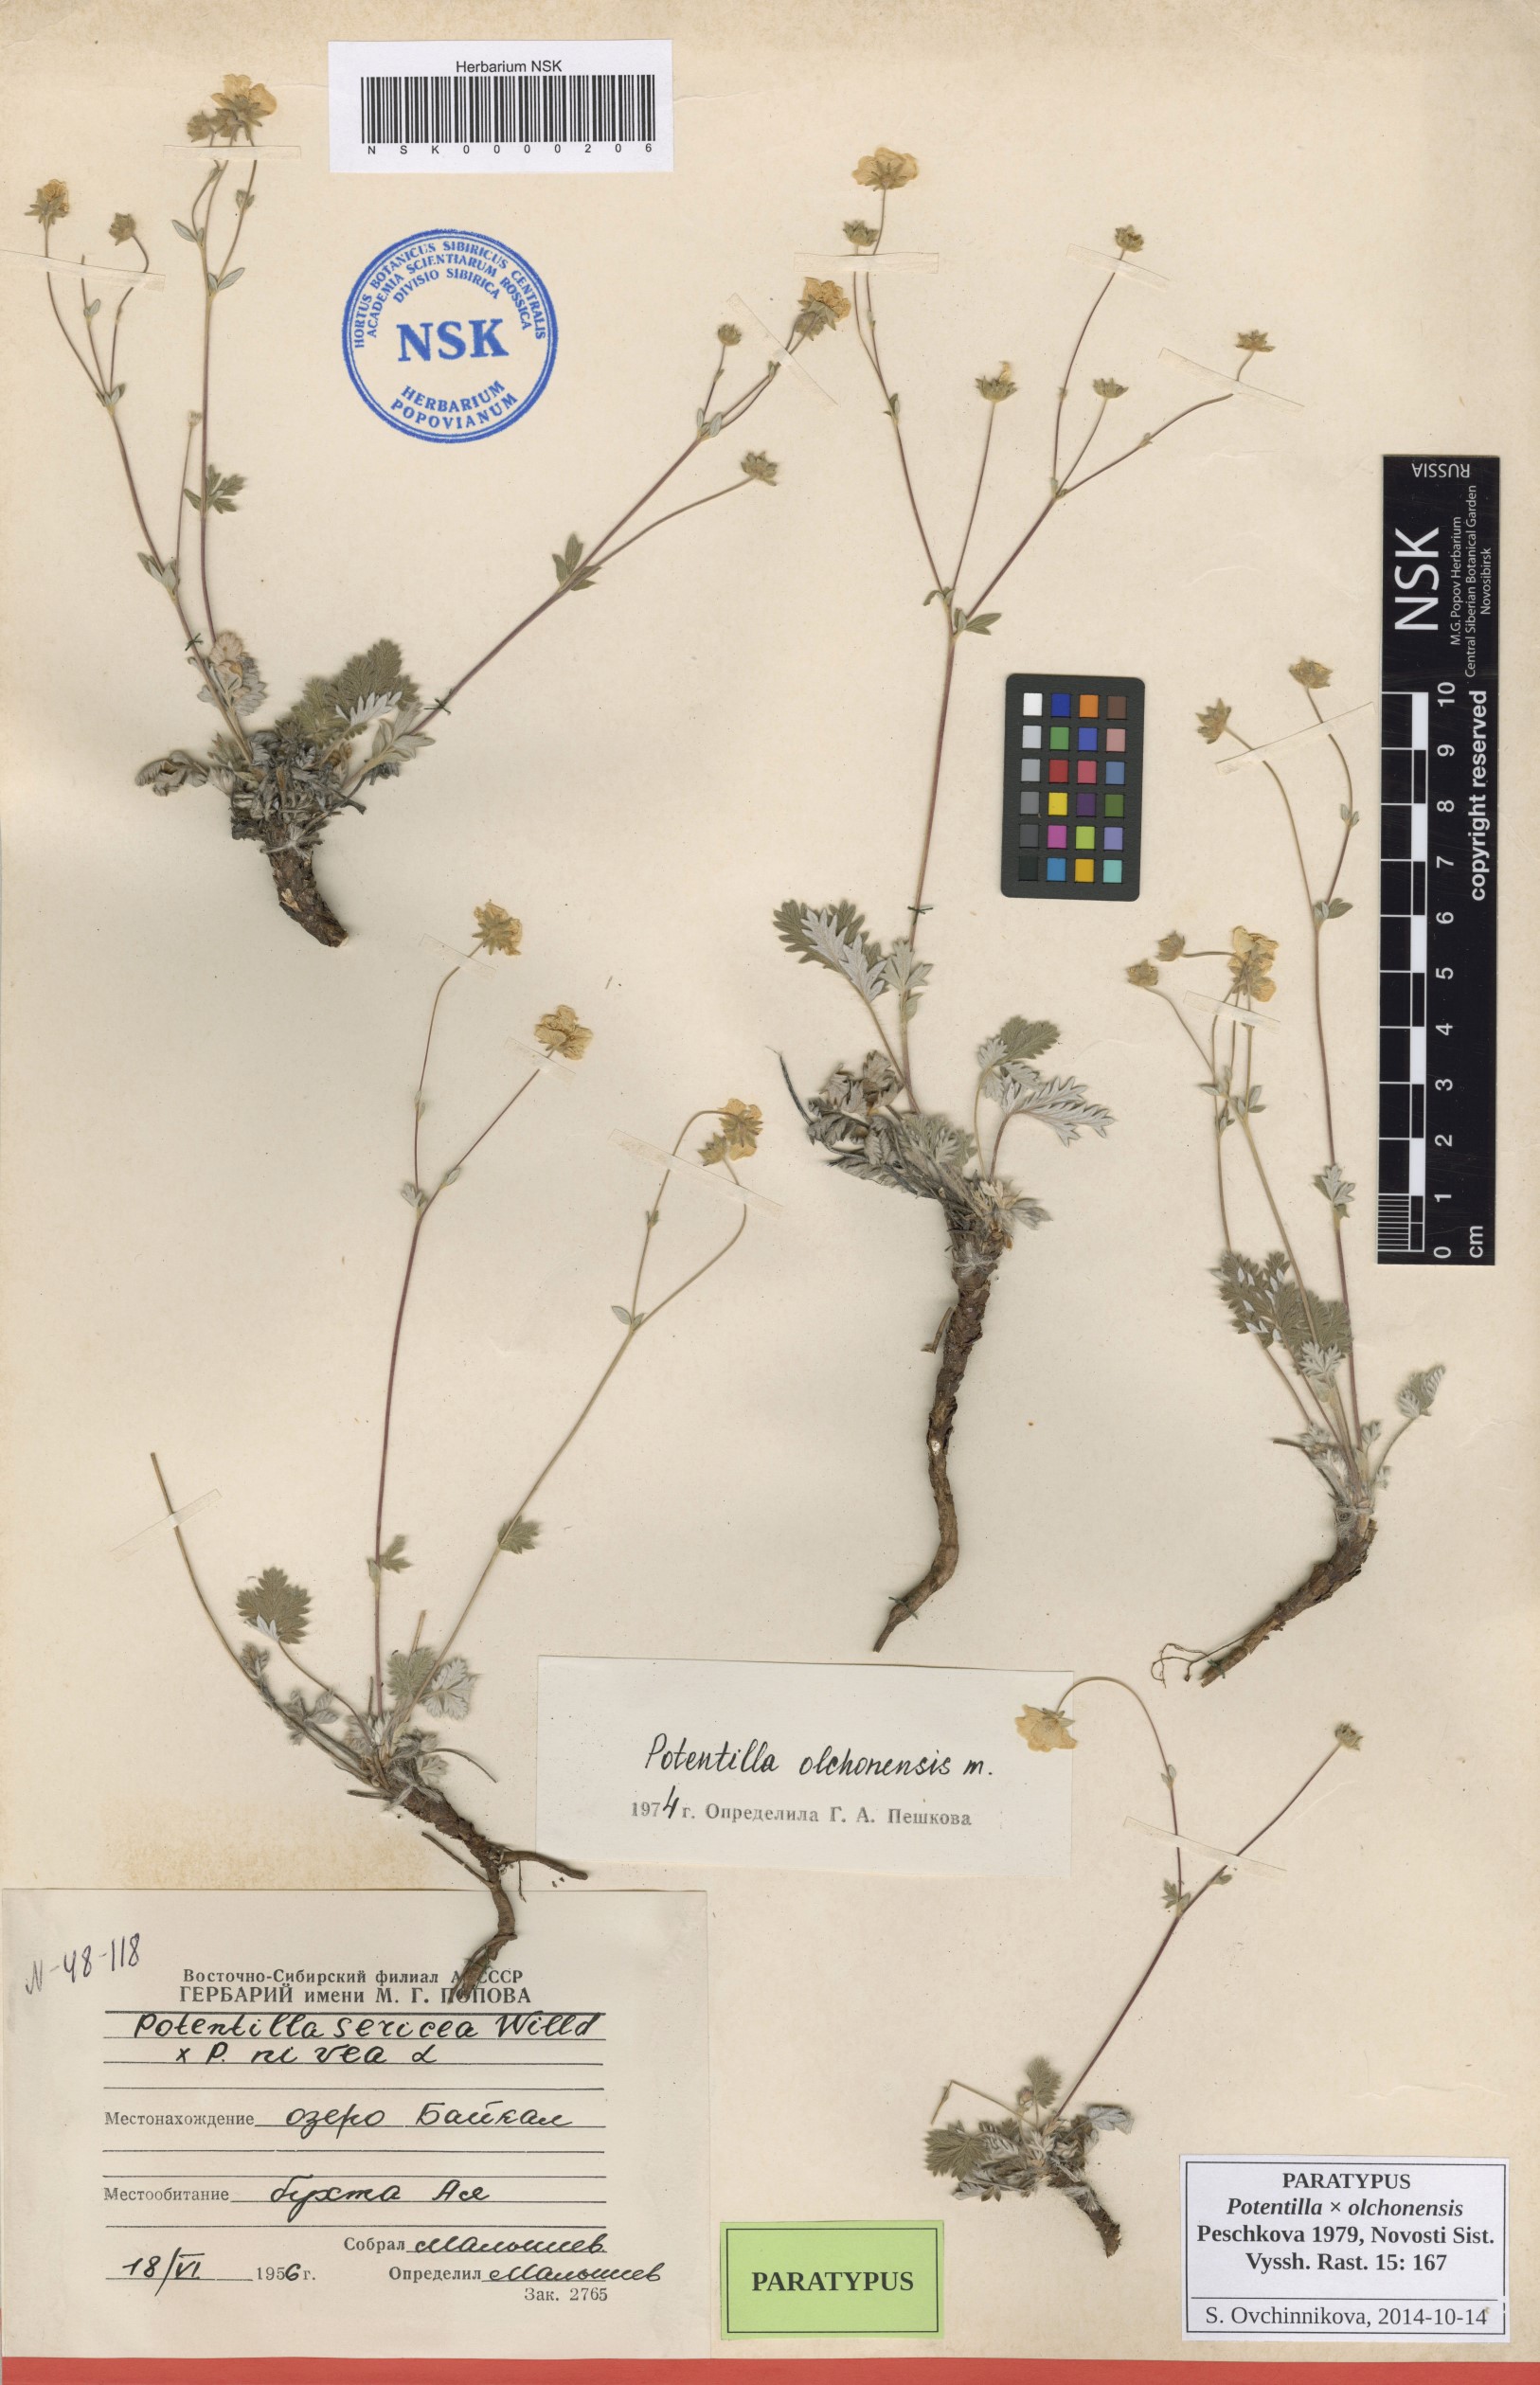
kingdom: Plantae
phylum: Tracheophyta
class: Magnoliopsida
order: Rosales
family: Rosaceae
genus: Potentilla
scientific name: Potentilla olchonensis
